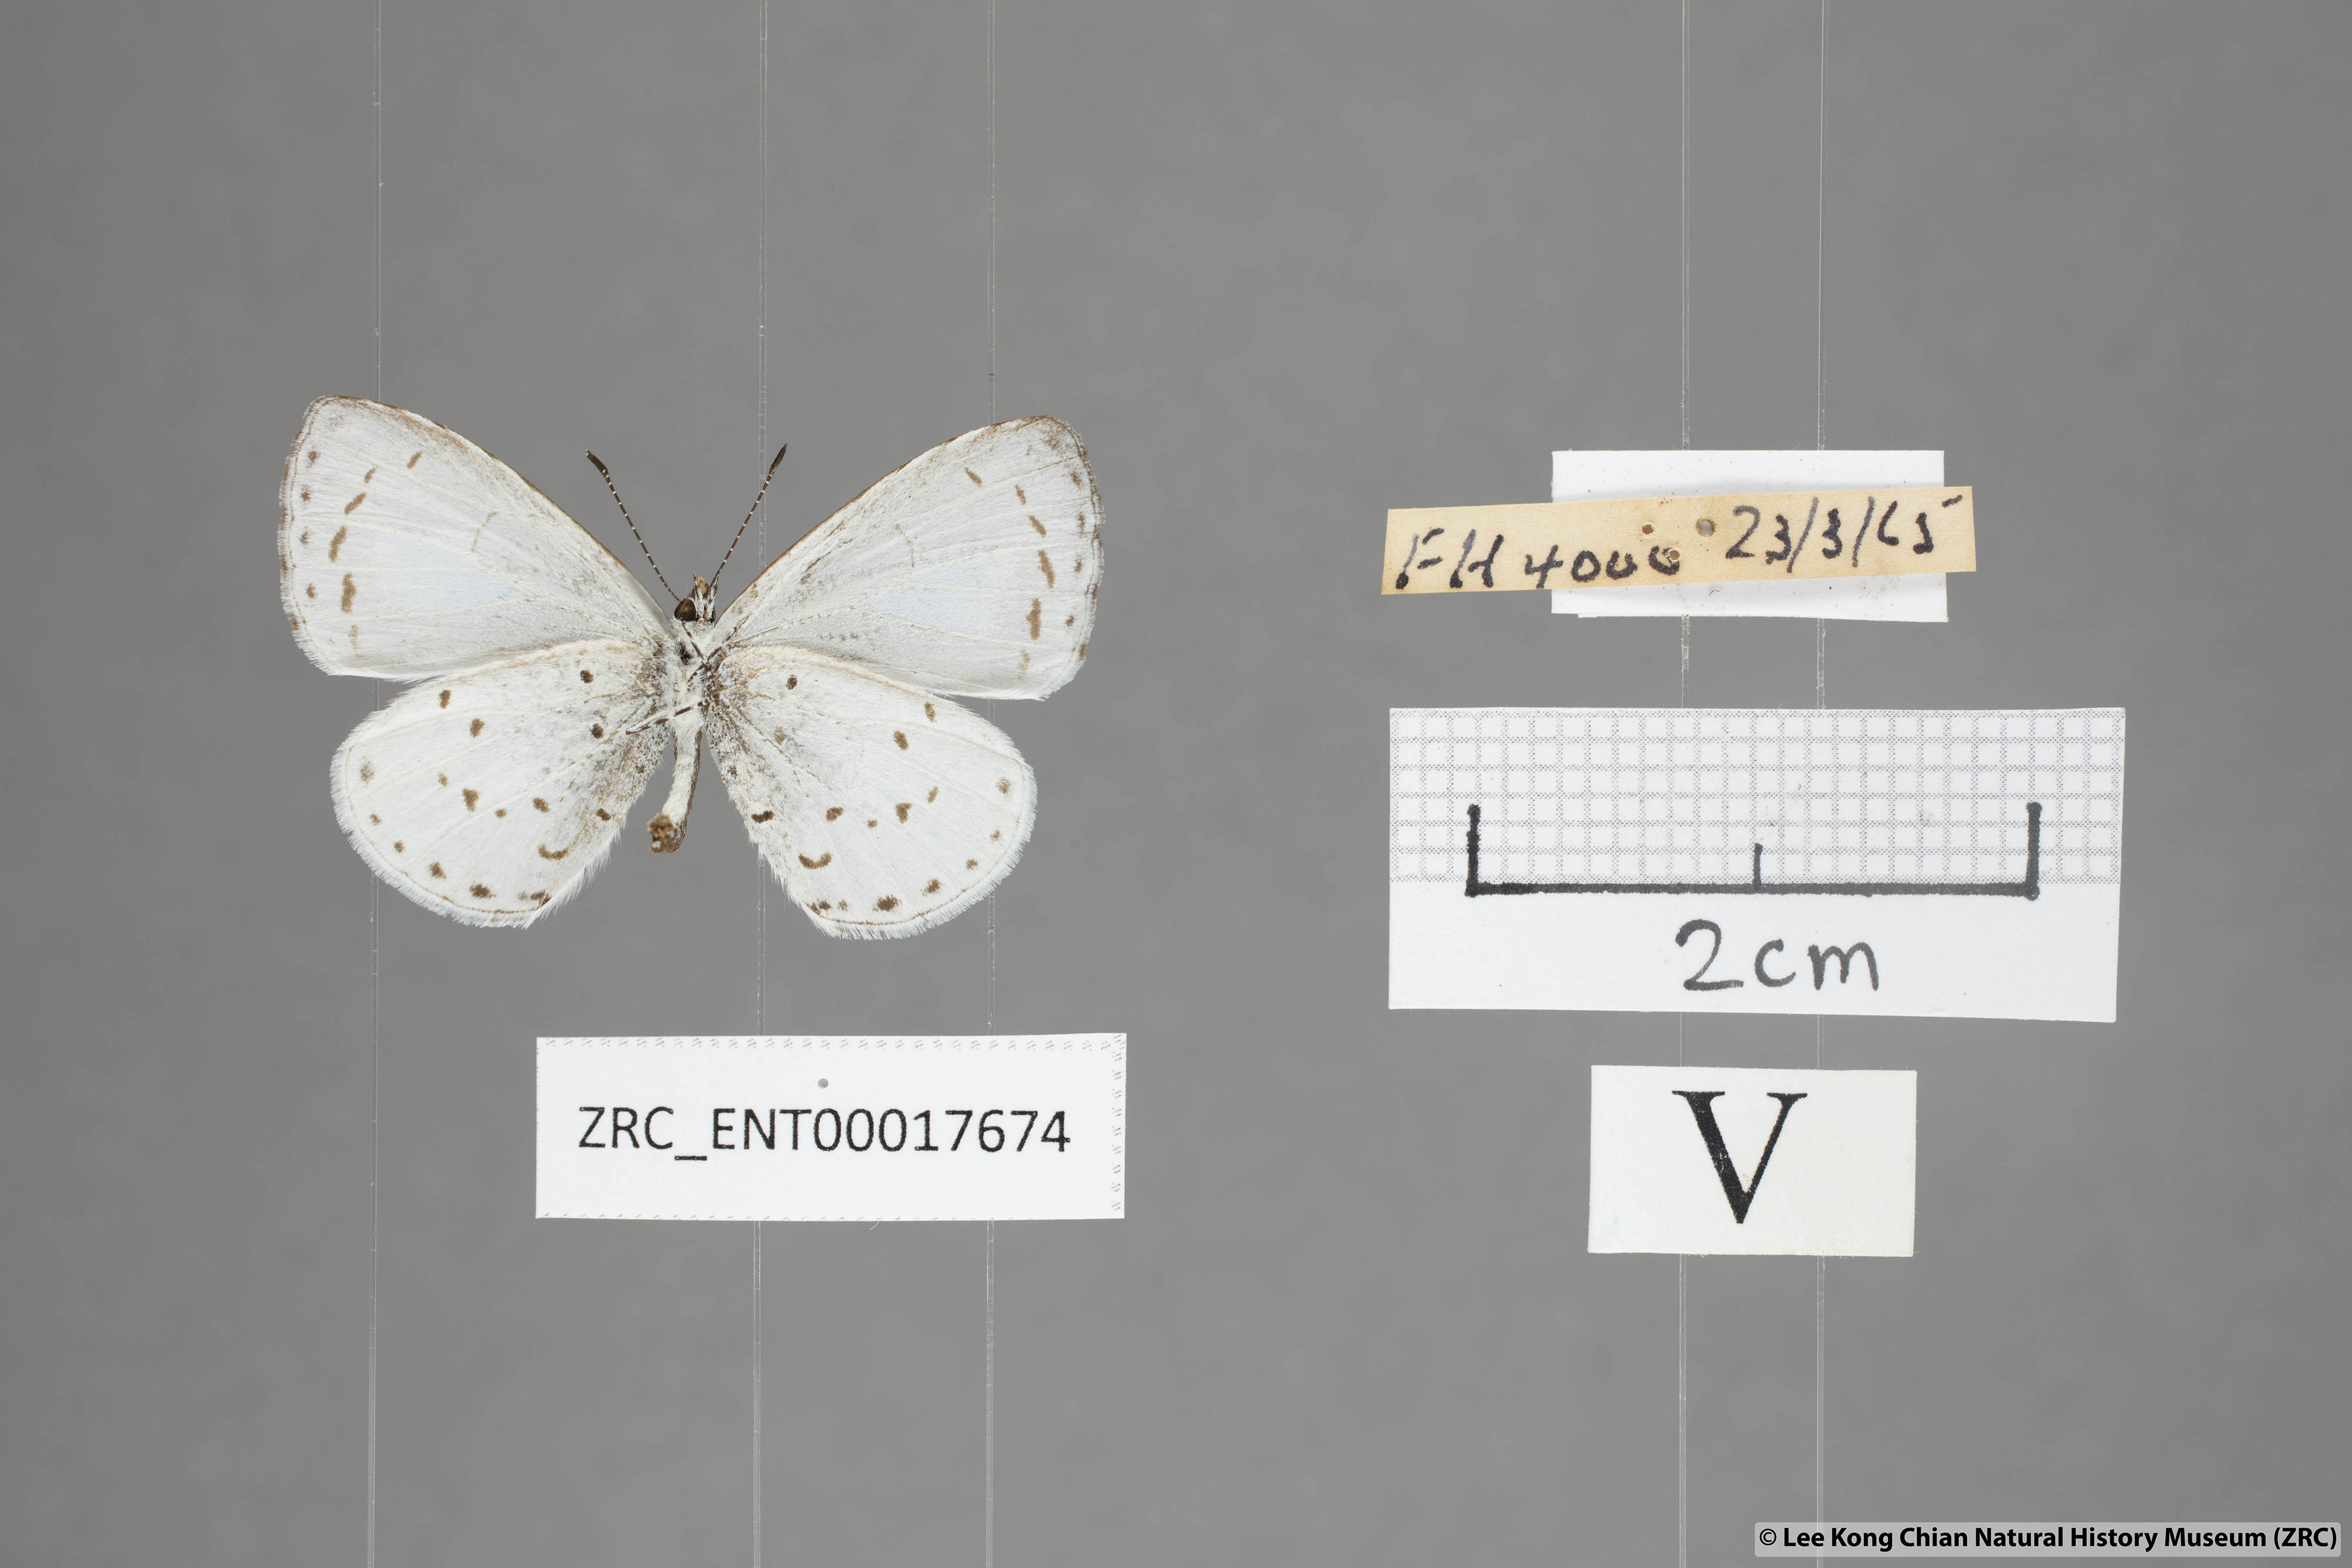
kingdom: Animalia
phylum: Arthropoda
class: Insecta
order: Lepidoptera
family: Lycaenidae
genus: Udara
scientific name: Udara albocaerulea
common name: Albocerulean
